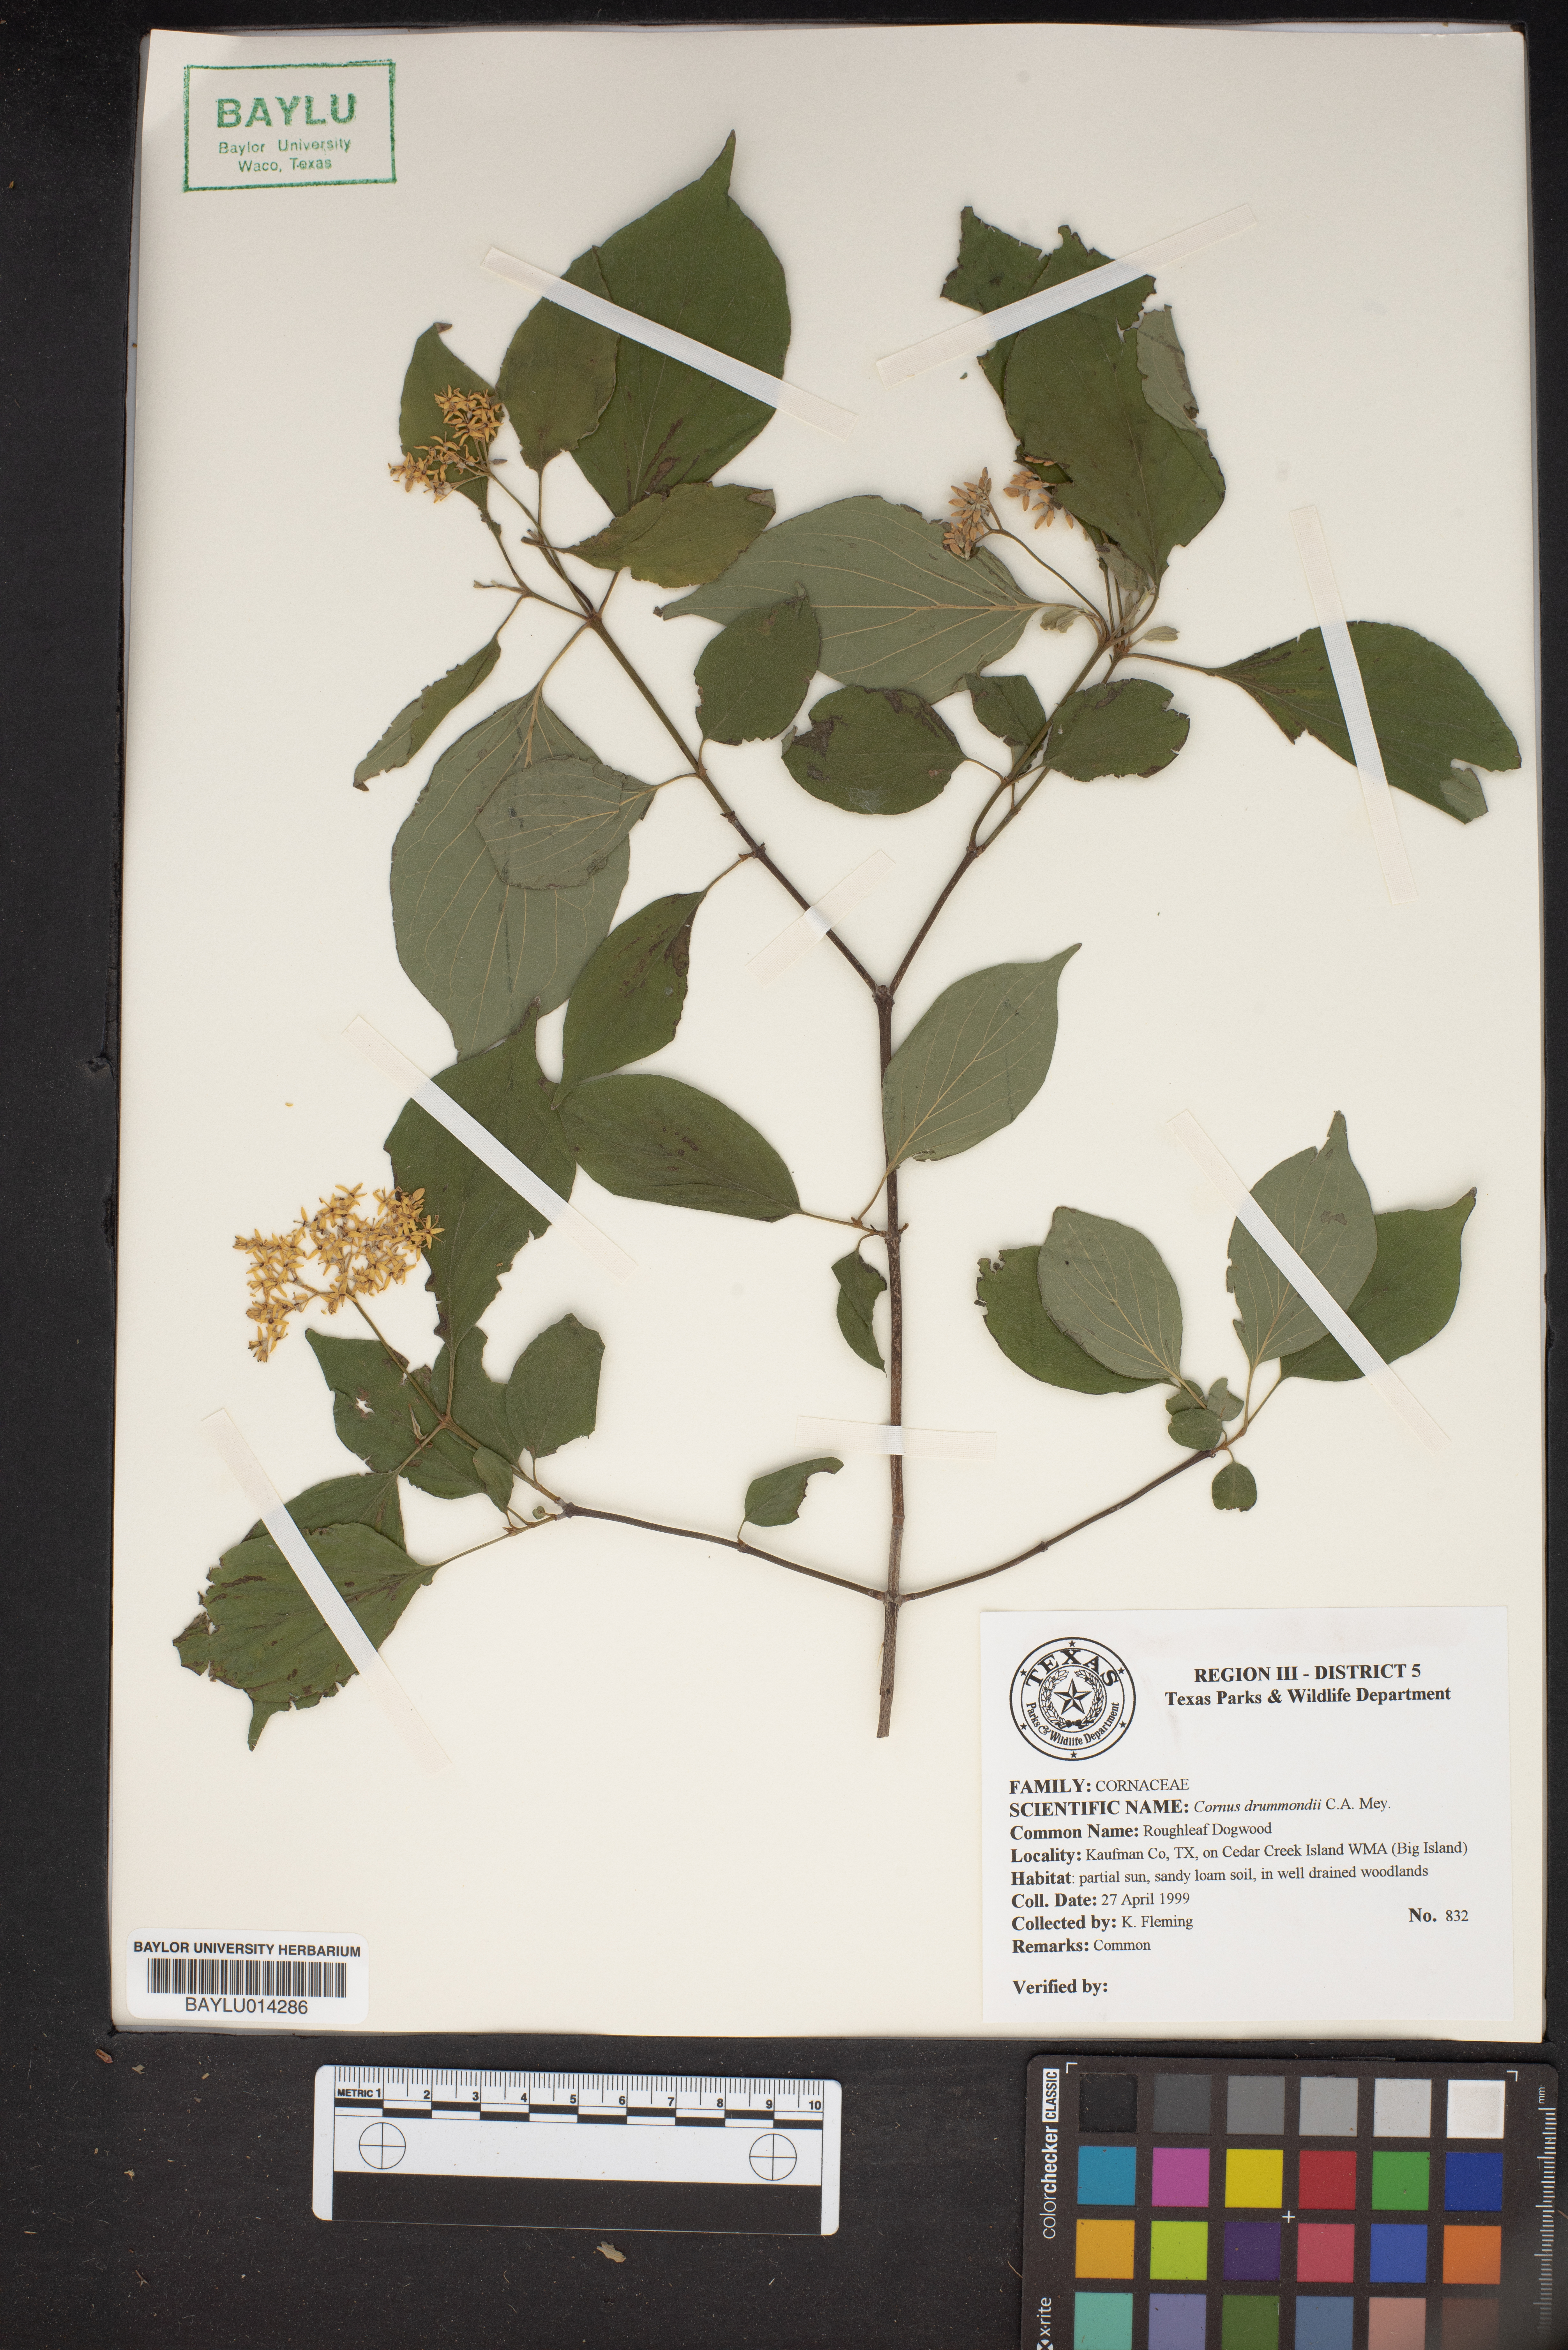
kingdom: Plantae
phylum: Tracheophyta
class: Magnoliopsida
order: Cornales
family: Cornaceae
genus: Cornus
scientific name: Cornus drummondii
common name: Rough-leaf dogwood
